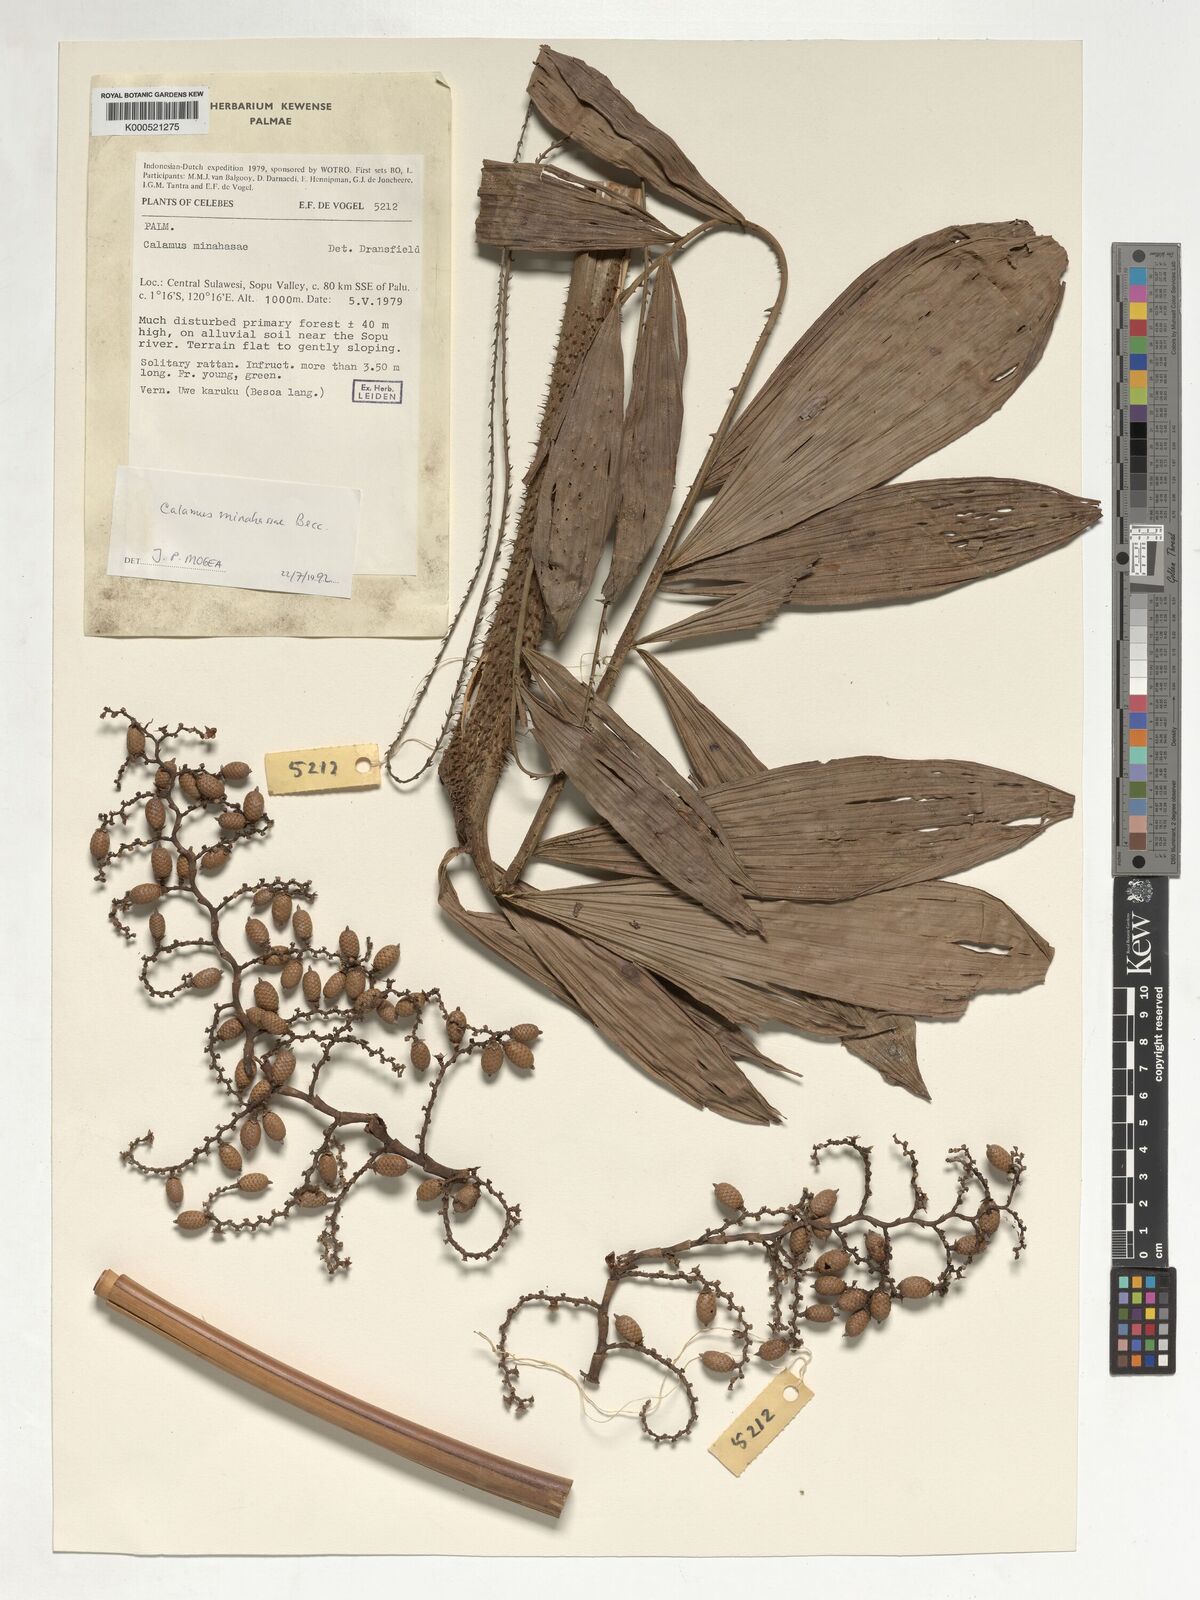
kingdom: Plantae
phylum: Tracheophyta
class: Liliopsida
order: Arecales
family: Arecaceae
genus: Calamus
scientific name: Calamus
